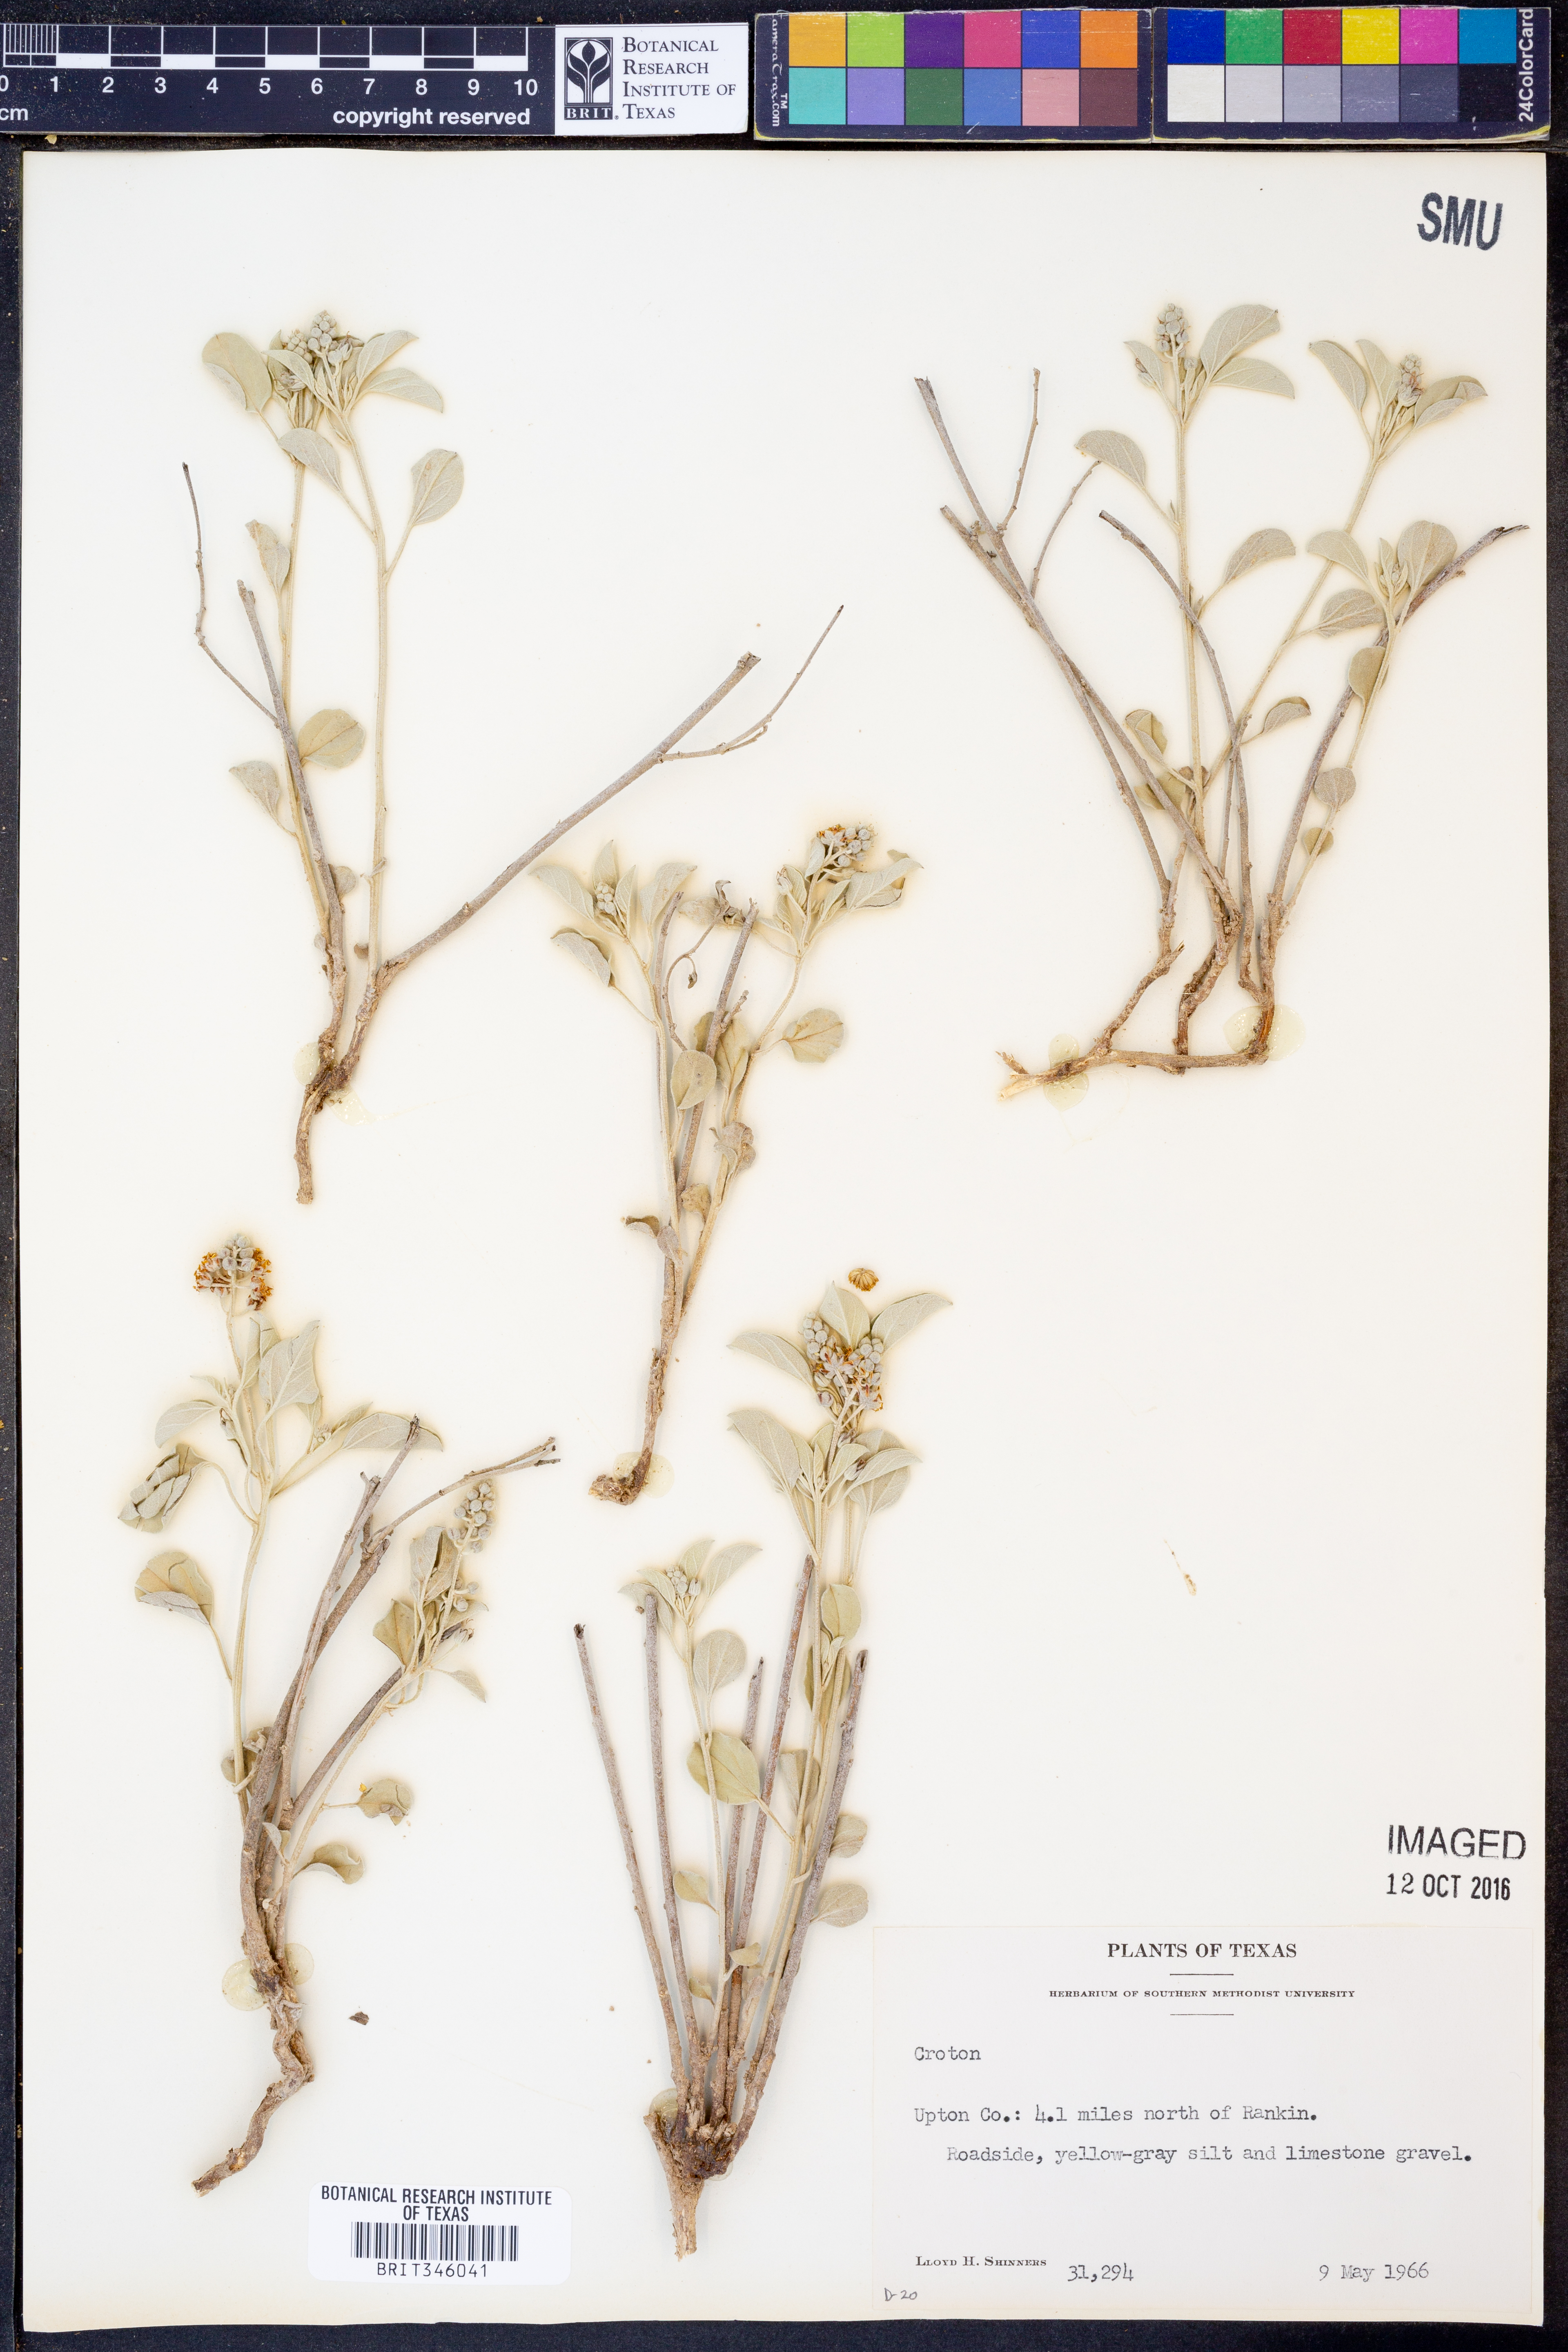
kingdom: Plantae
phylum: Tracheophyta
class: Magnoliopsida
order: Malpighiales
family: Euphorbiaceae
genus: Croton
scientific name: Croton
